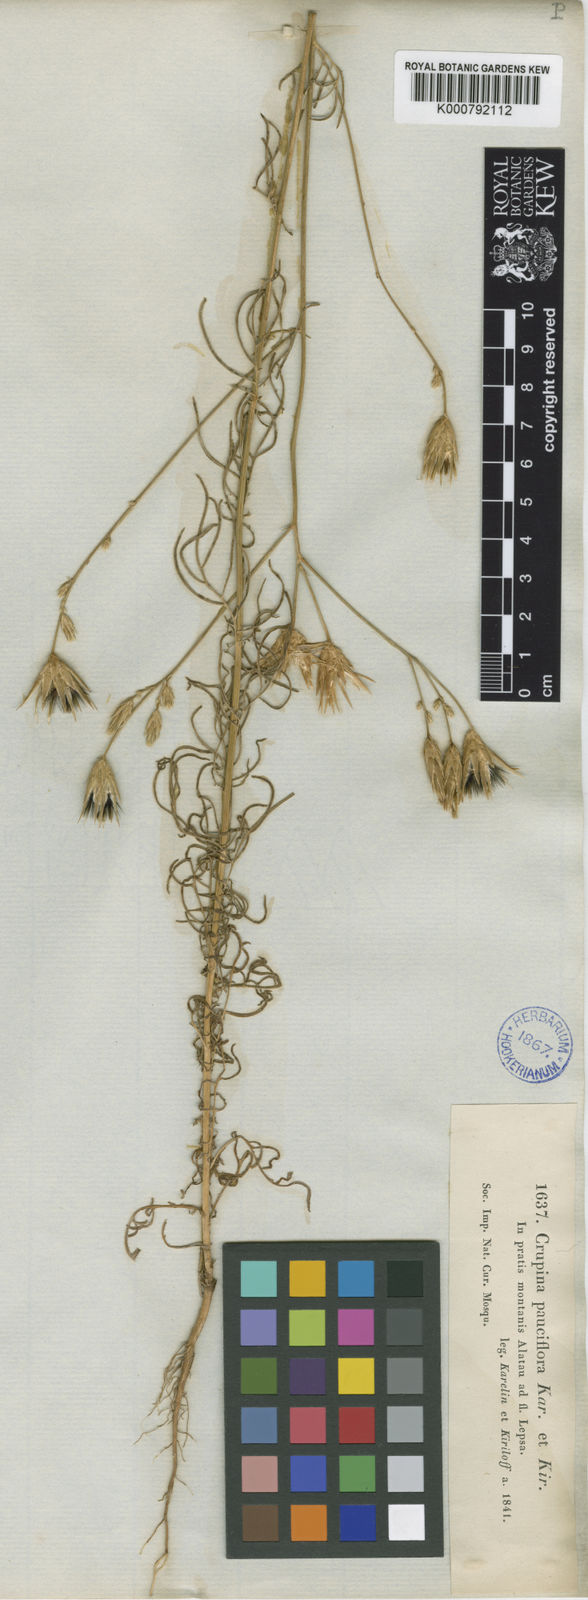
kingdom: Plantae
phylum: Tracheophyta
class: Magnoliopsida
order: Asterales
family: Asteraceae
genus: Crupina
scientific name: Crupina vulgaris
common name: Common crupina
